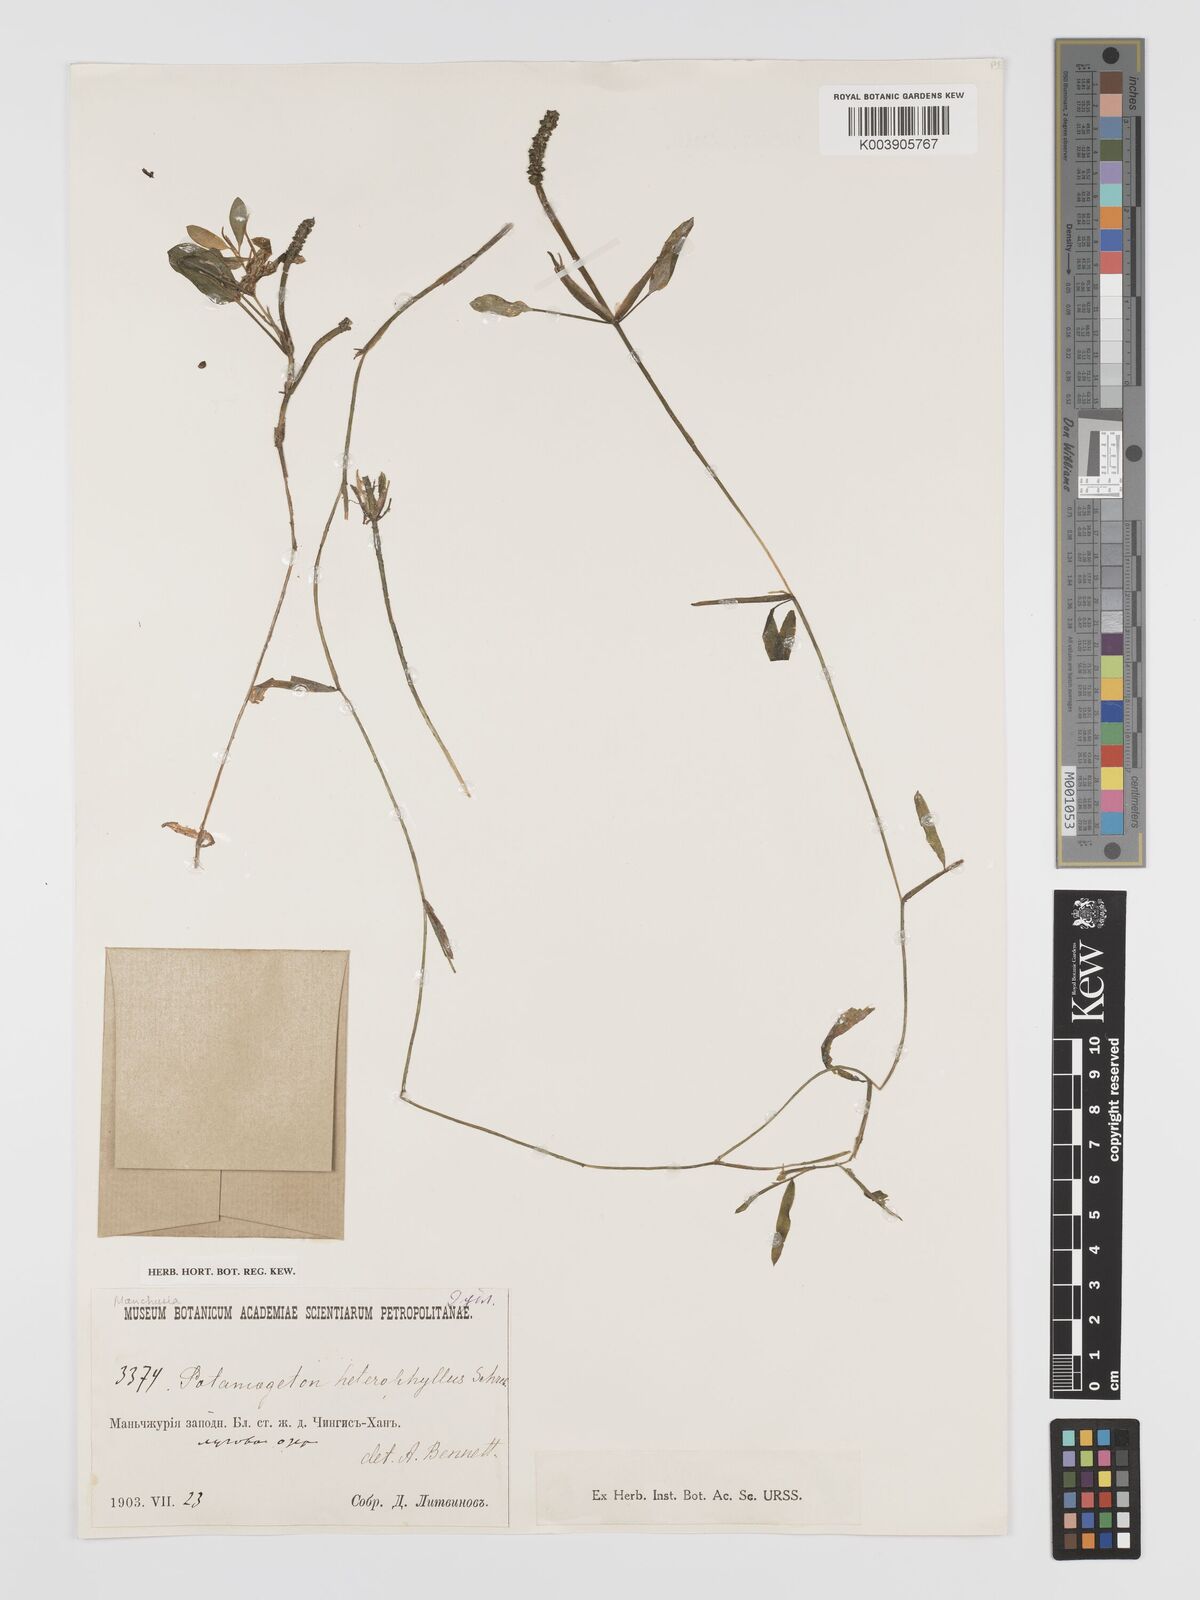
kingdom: Plantae
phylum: Tracheophyta
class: Liliopsida
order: Alismatales
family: Potamogetonaceae
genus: Potamogeton
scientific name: Potamogeton gramineus
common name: Various-leaved pondweed
